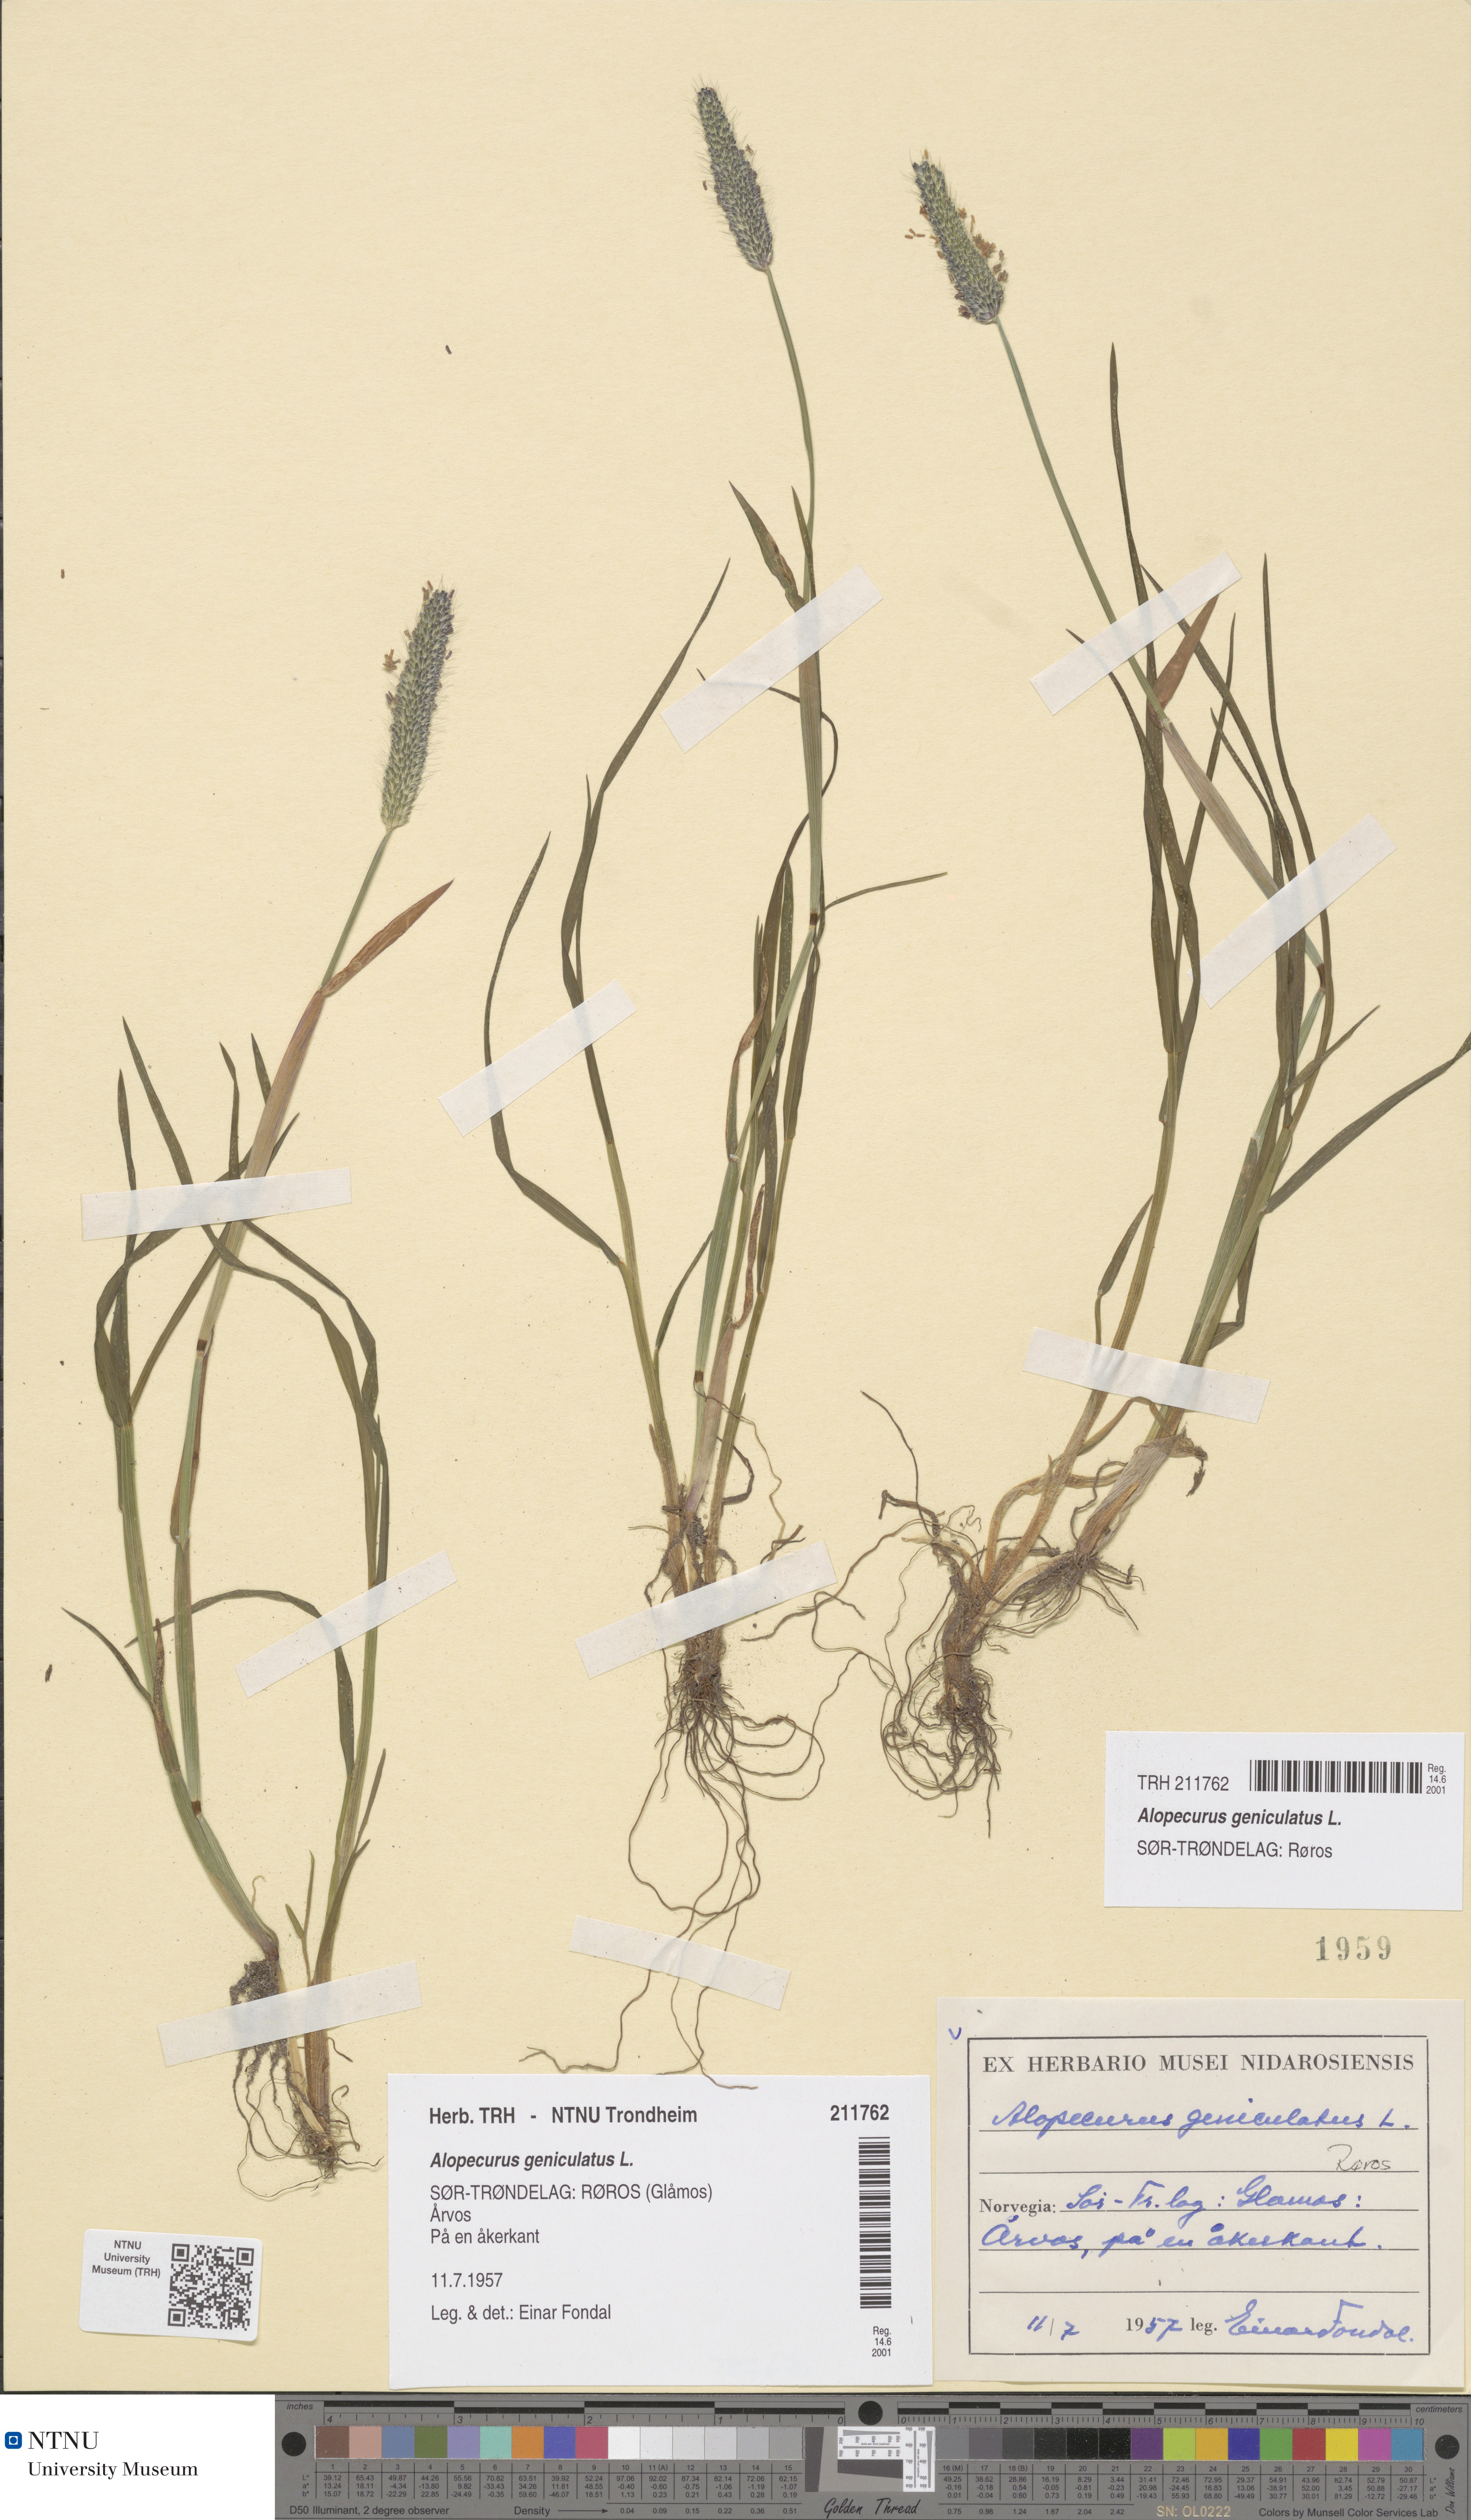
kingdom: Plantae
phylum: Tracheophyta
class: Liliopsida
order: Poales
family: Poaceae
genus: Alopecurus
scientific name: Alopecurus geniculatus
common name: Water foxtail
